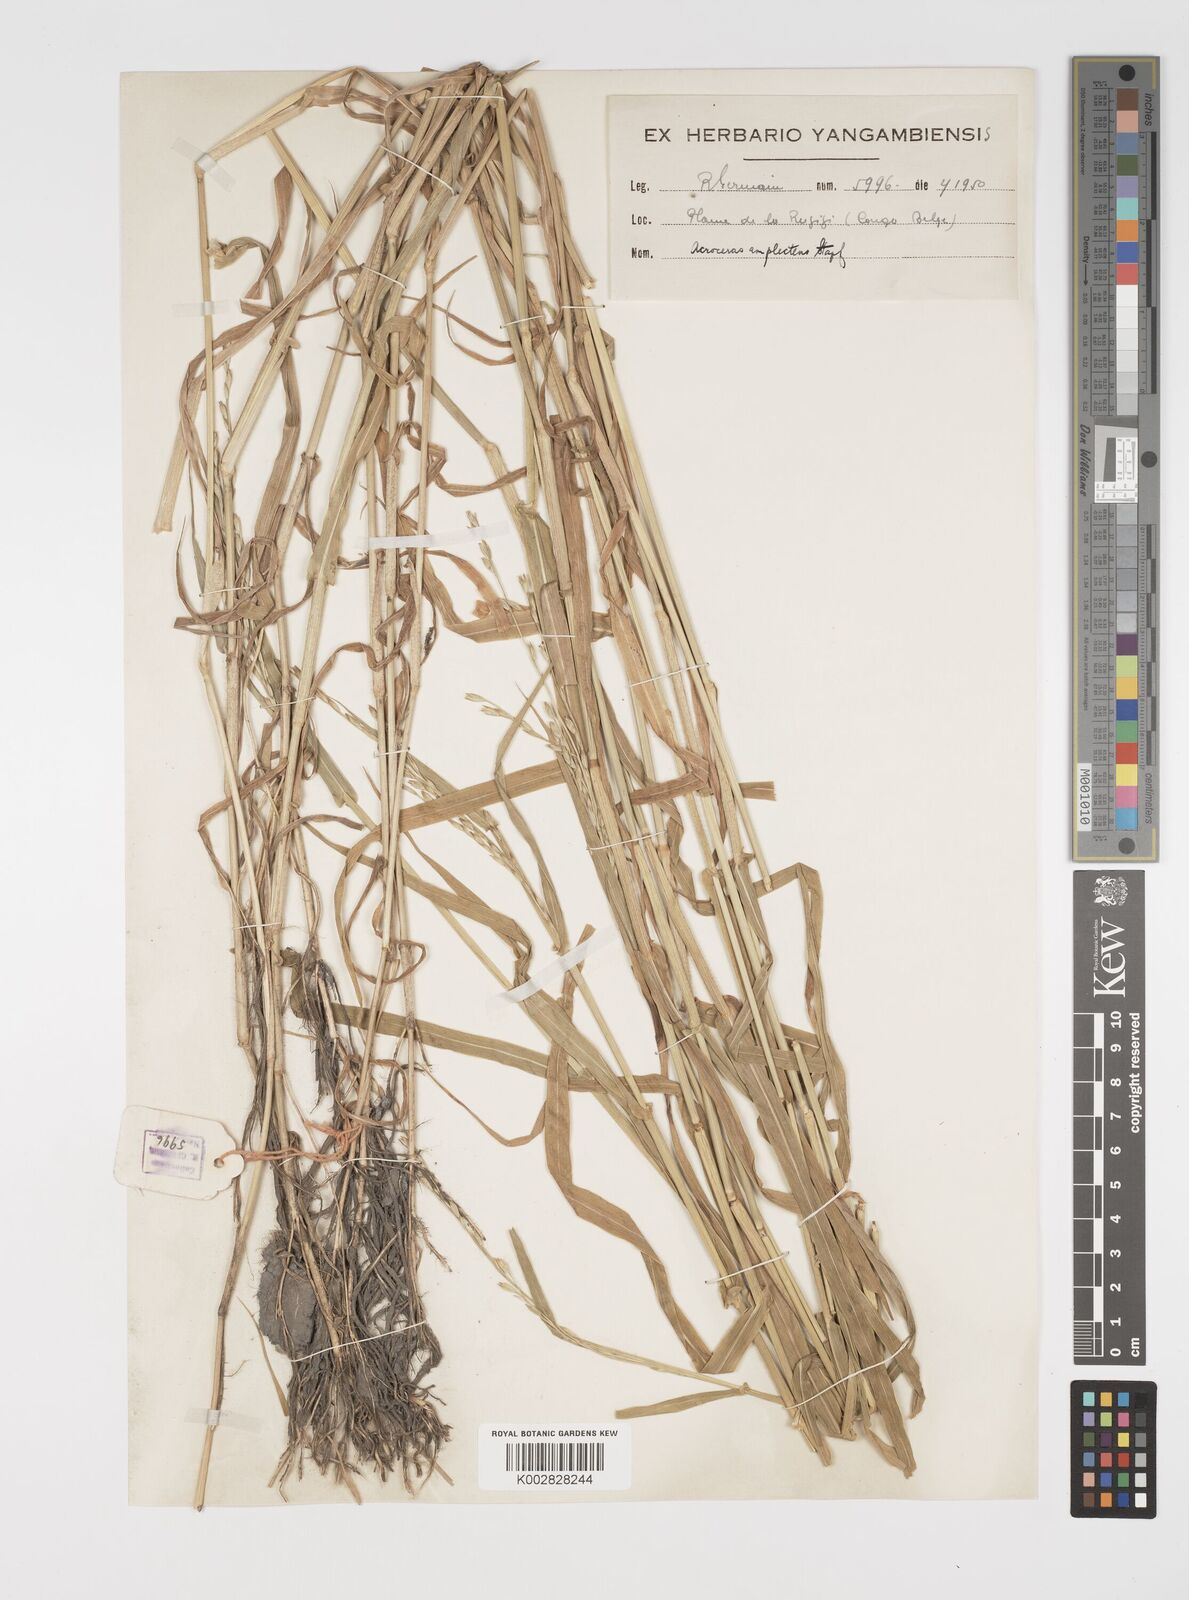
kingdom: Plantae
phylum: Tracheophyta
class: Liliopsida
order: Poales
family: Poaceae
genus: Acroceras
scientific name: Acroceras amplectens
